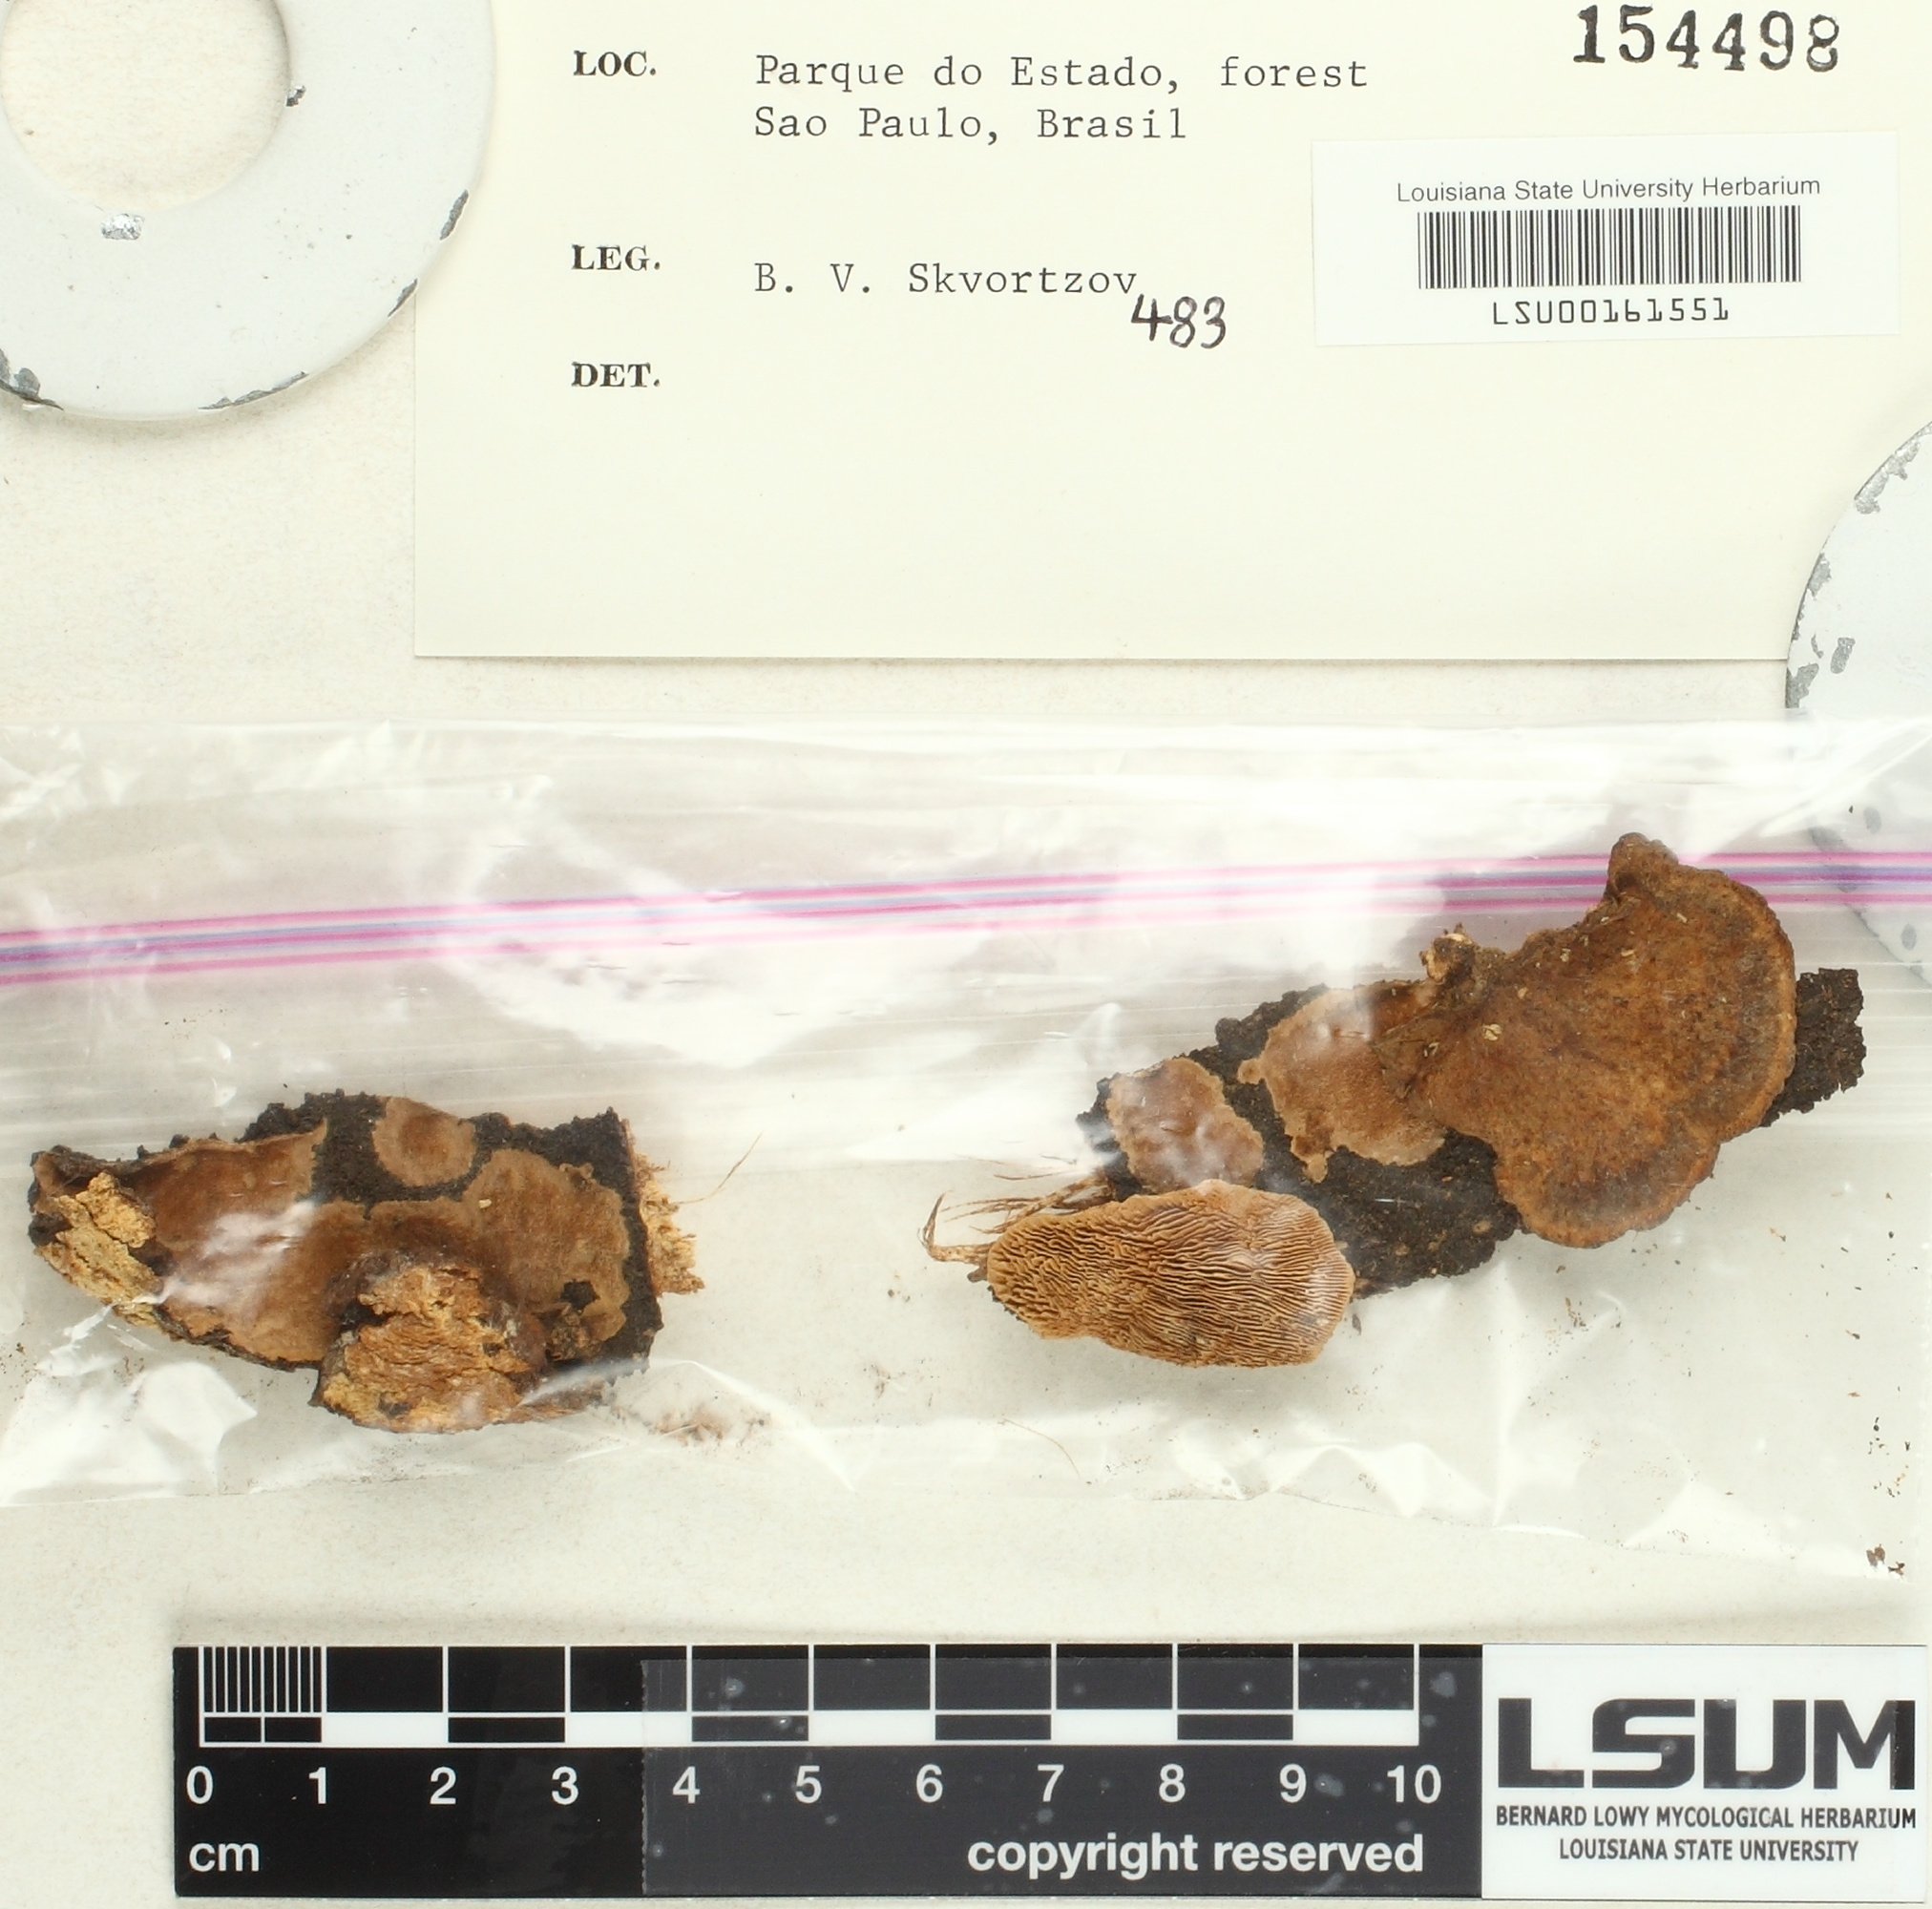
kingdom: Fungi
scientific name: Fungi
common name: Fungi
